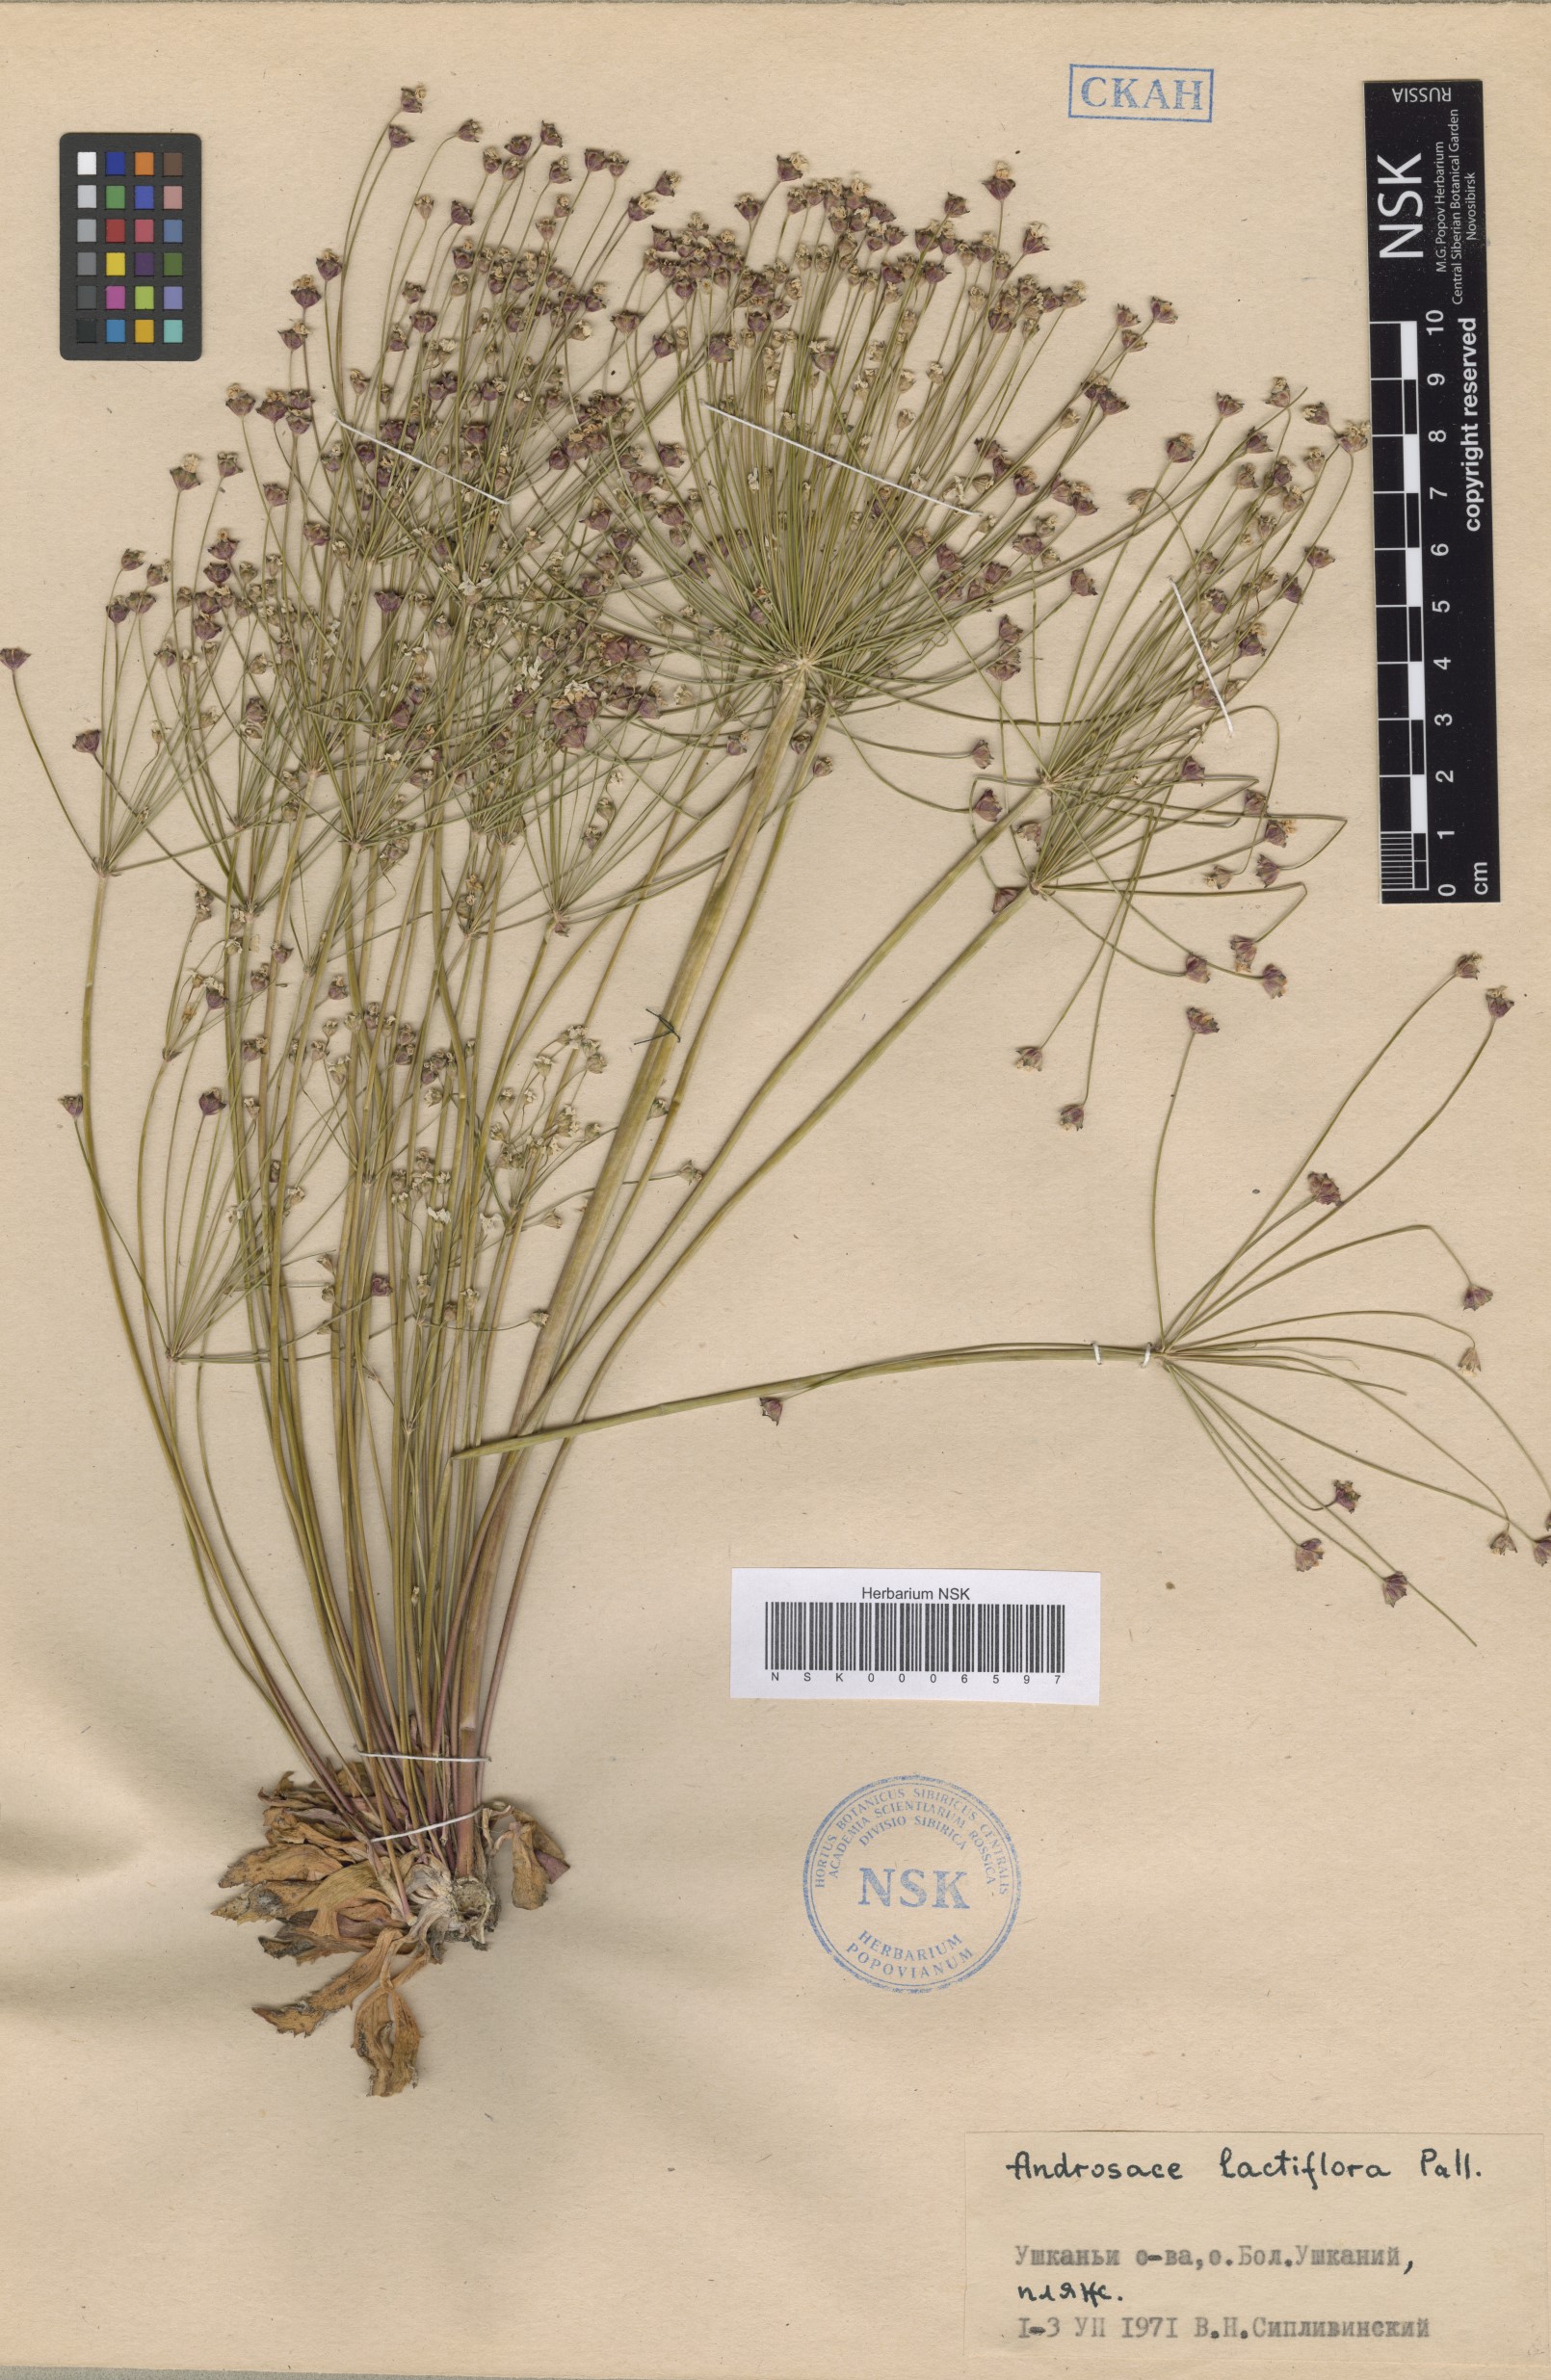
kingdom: Plantae
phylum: Tracheophyta
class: Magnoliopsida
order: Ericales
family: Primulaceae
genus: Androsace
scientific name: Androsace lactiflora
